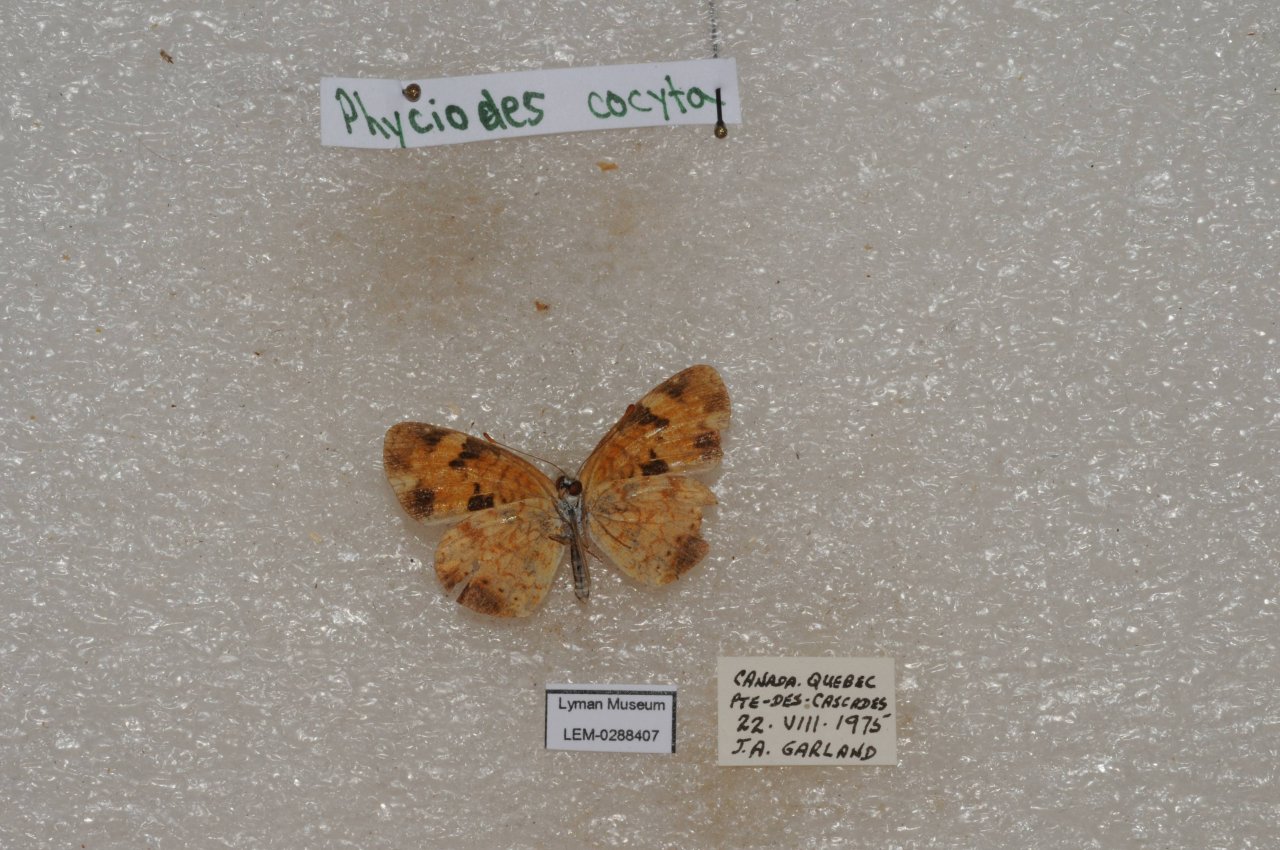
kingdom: Animalia
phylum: Arthropoda
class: Insecta
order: Lepidoptera
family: Nymphalidae
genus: Phyciodes
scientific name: Phyciodes tharos
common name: Northern Crescent
